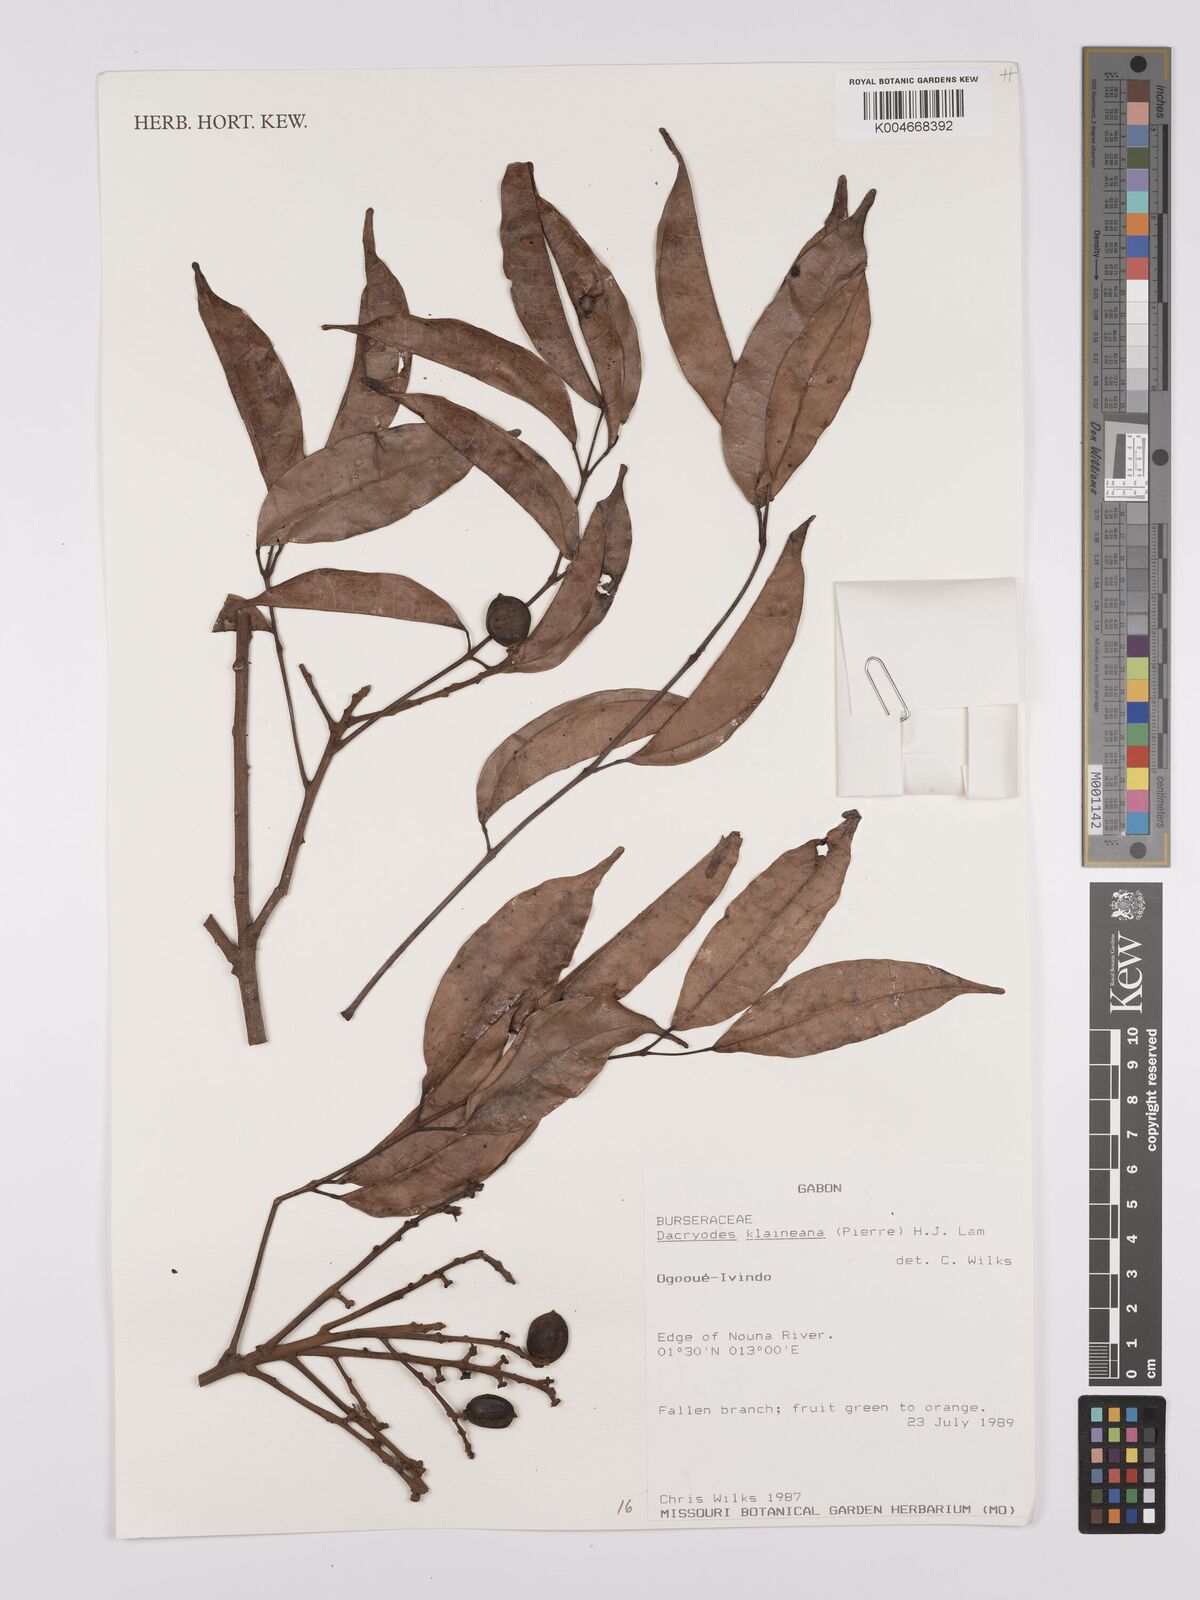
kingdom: Plantae
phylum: Tracheophyta
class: Magnoliopsida
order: Sapindales
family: Burseraceae
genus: Pachylobus
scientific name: Pachylobus klaineana
